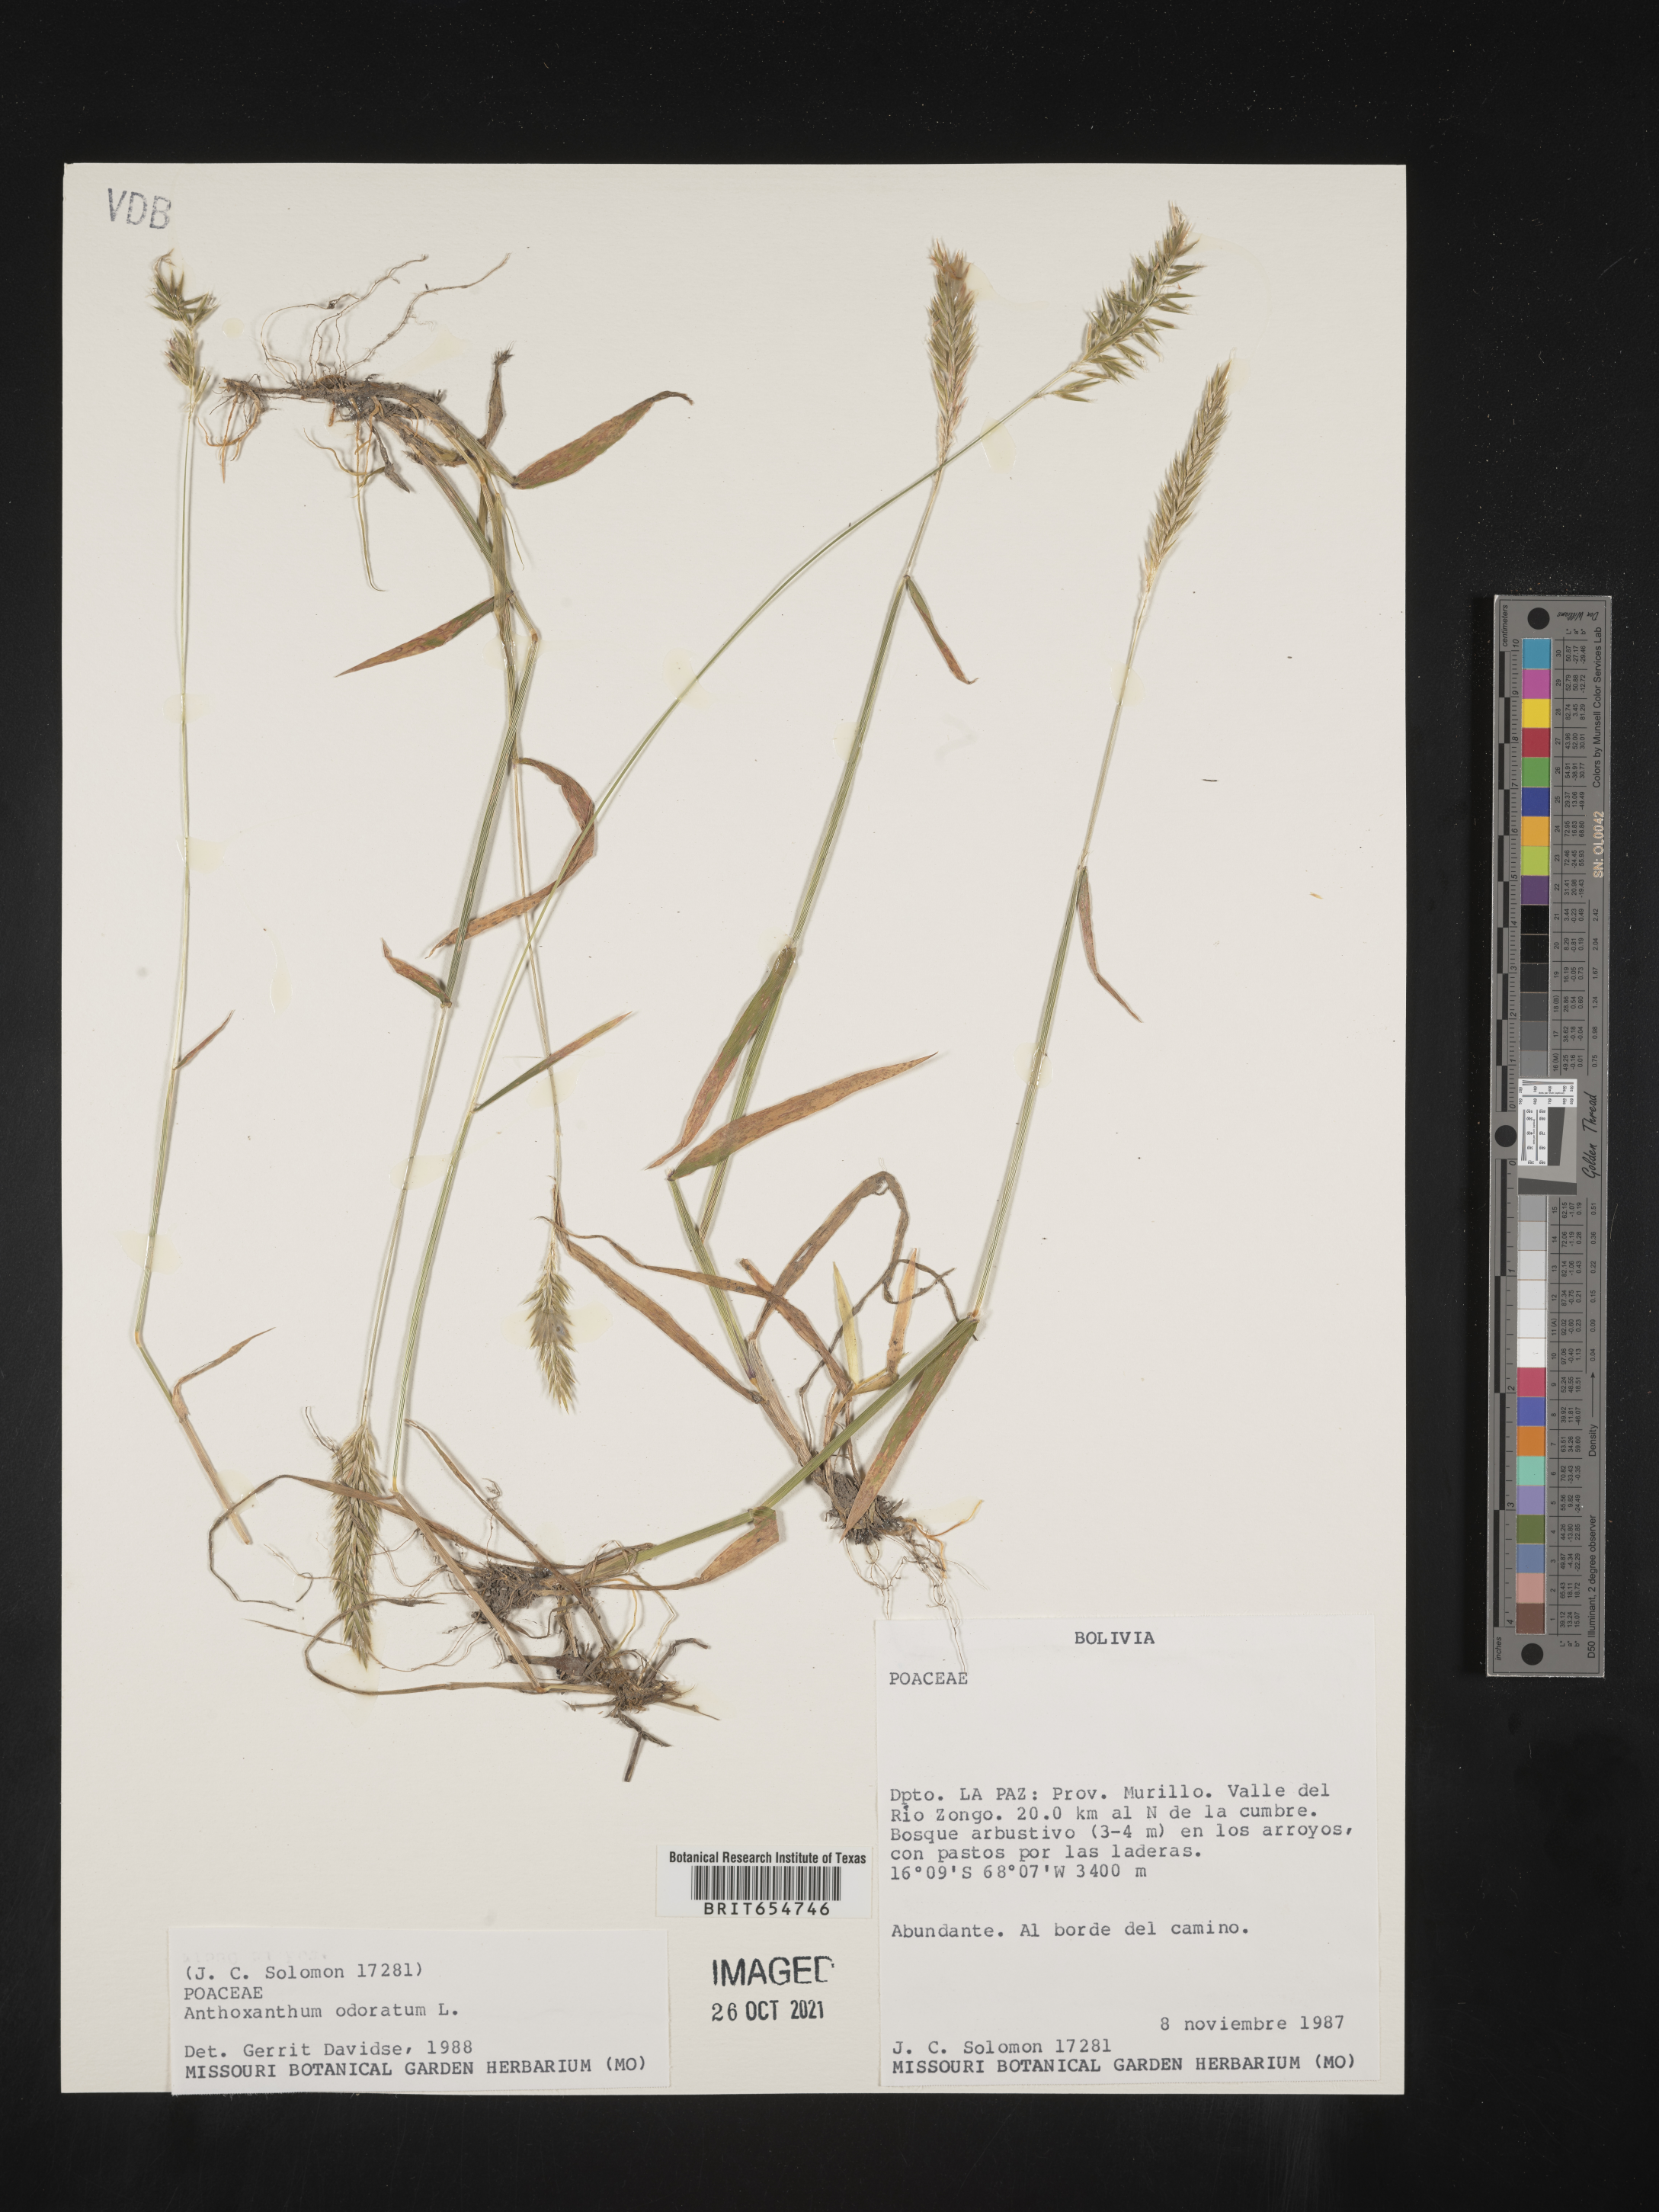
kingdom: Plantae
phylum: Tracheophyta
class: Liliopsida
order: Poales
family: Poaceae
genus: Anthoxanthum
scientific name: Anthoxanthum
